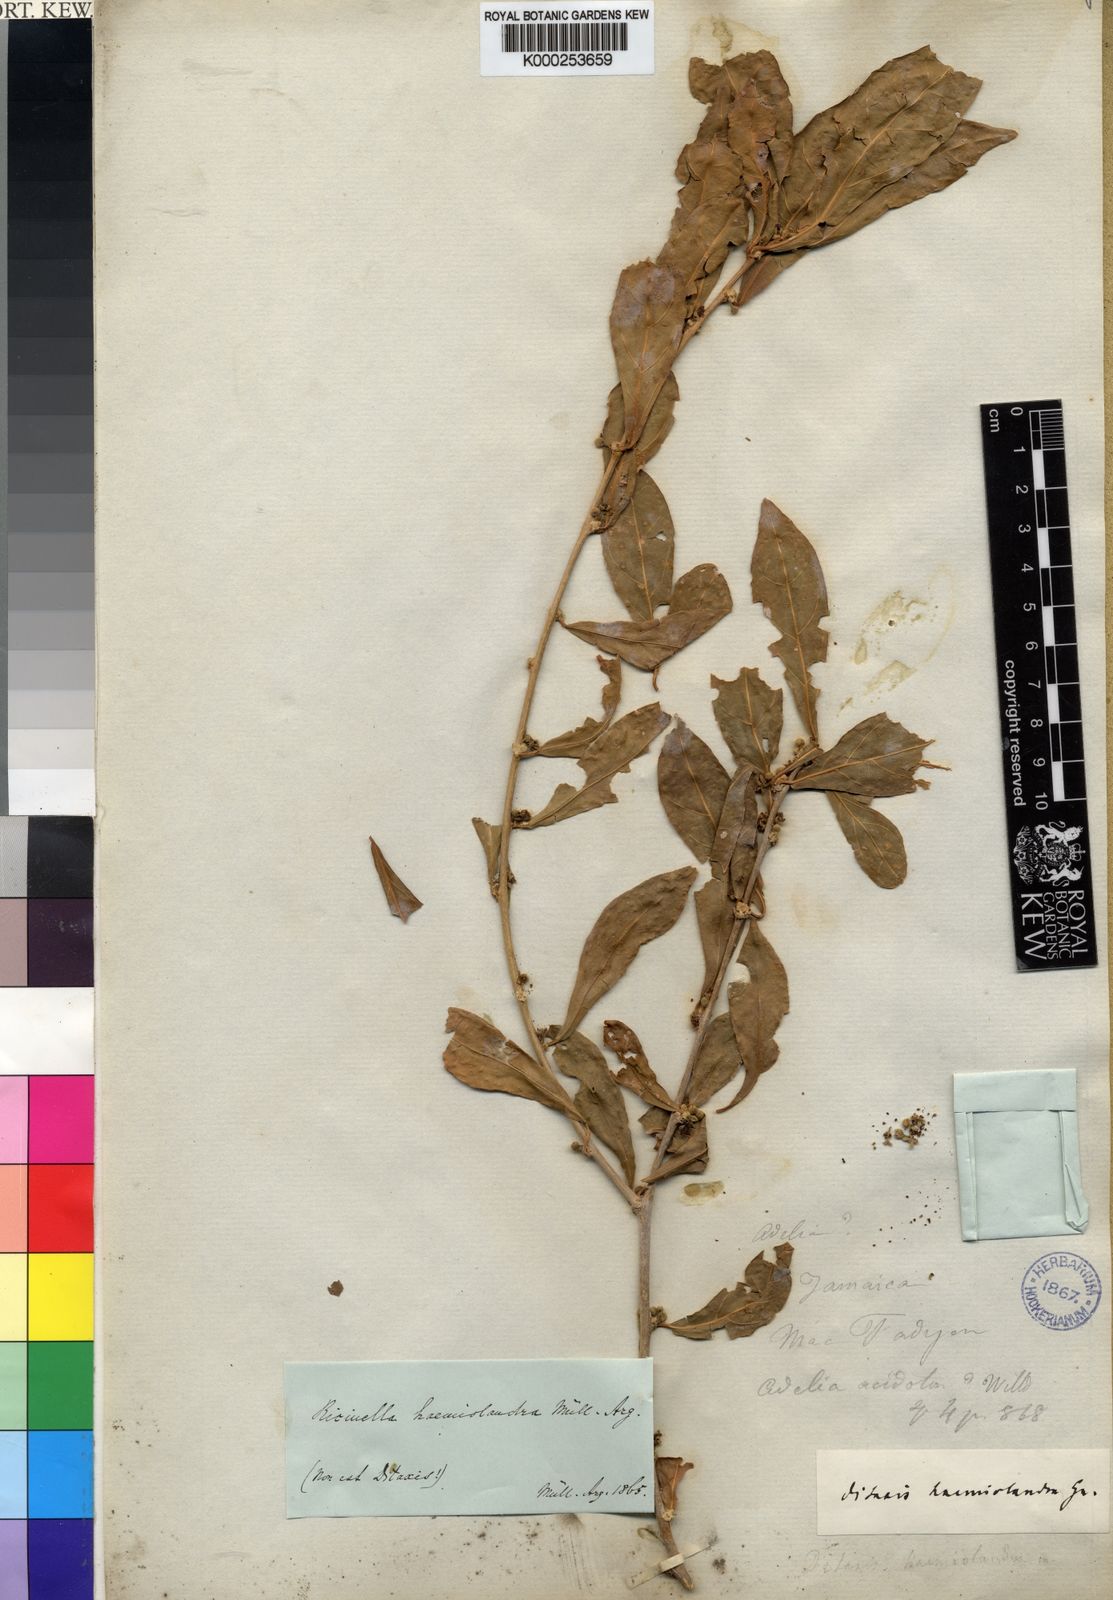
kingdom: Plantae
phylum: Tracheophyta
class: Magnoliopsida
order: Malpighiales
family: Euphorbiaceae
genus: Adelia
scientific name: Adelia ricinella
